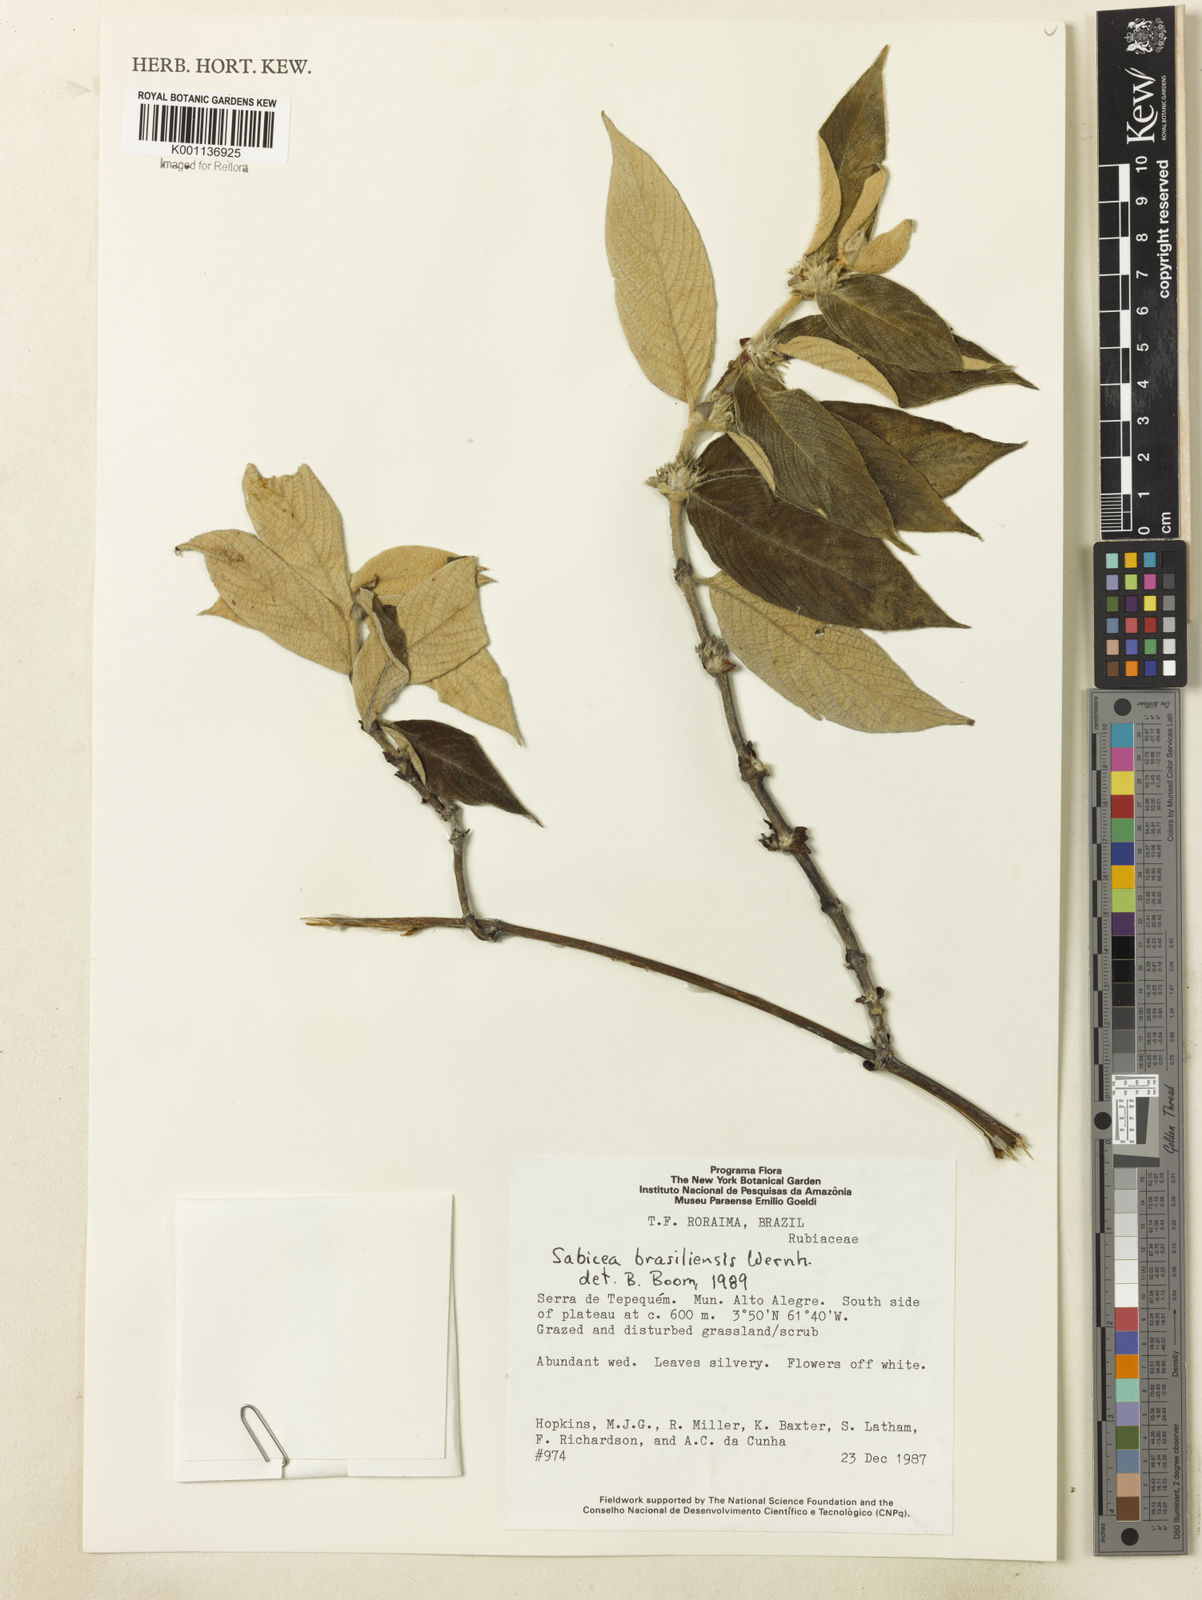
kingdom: Plantae
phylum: Tracheophyta
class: Magnoliopsida
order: Gentianales
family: Rubiaceae
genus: Sabicea
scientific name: Sabicea brasiliensis
